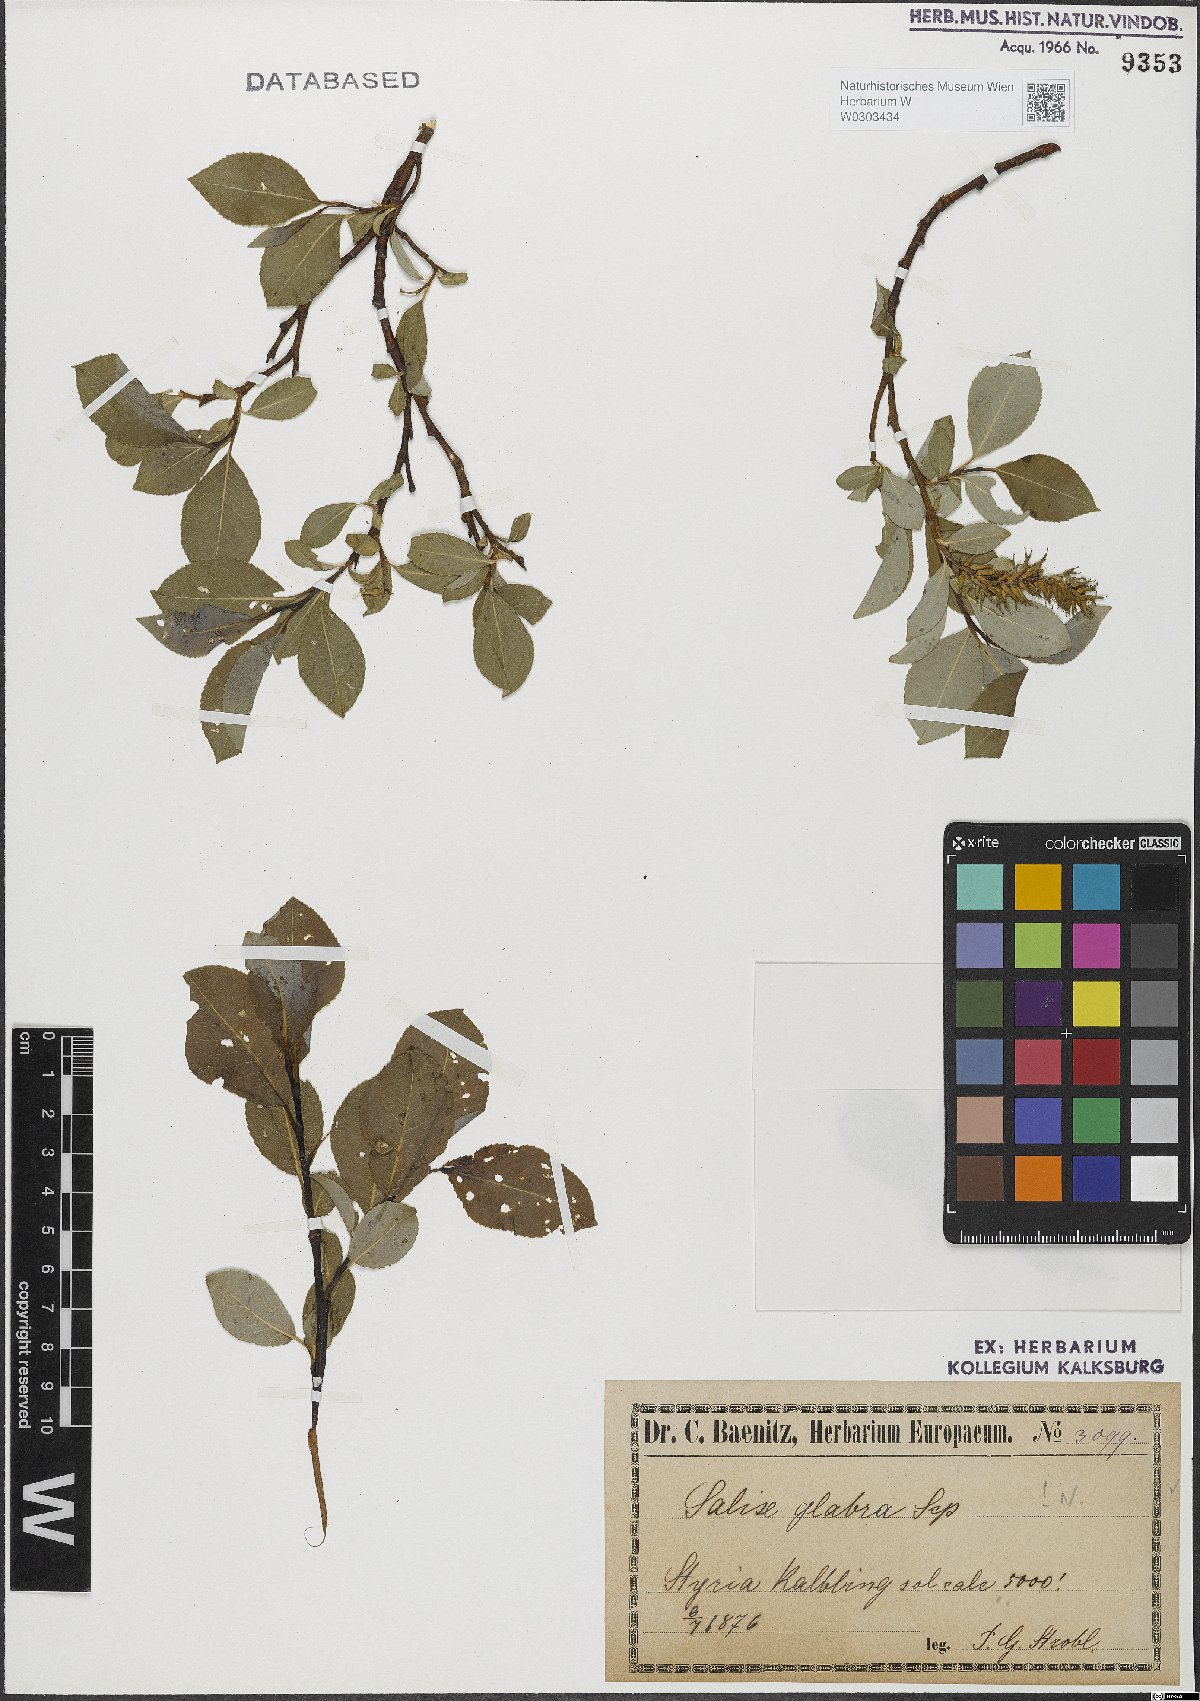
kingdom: Plantae
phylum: Tracheophyta
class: Magnoliopsida
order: Malpighiales
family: Salicaceae
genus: Salix
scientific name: Salix glabra
